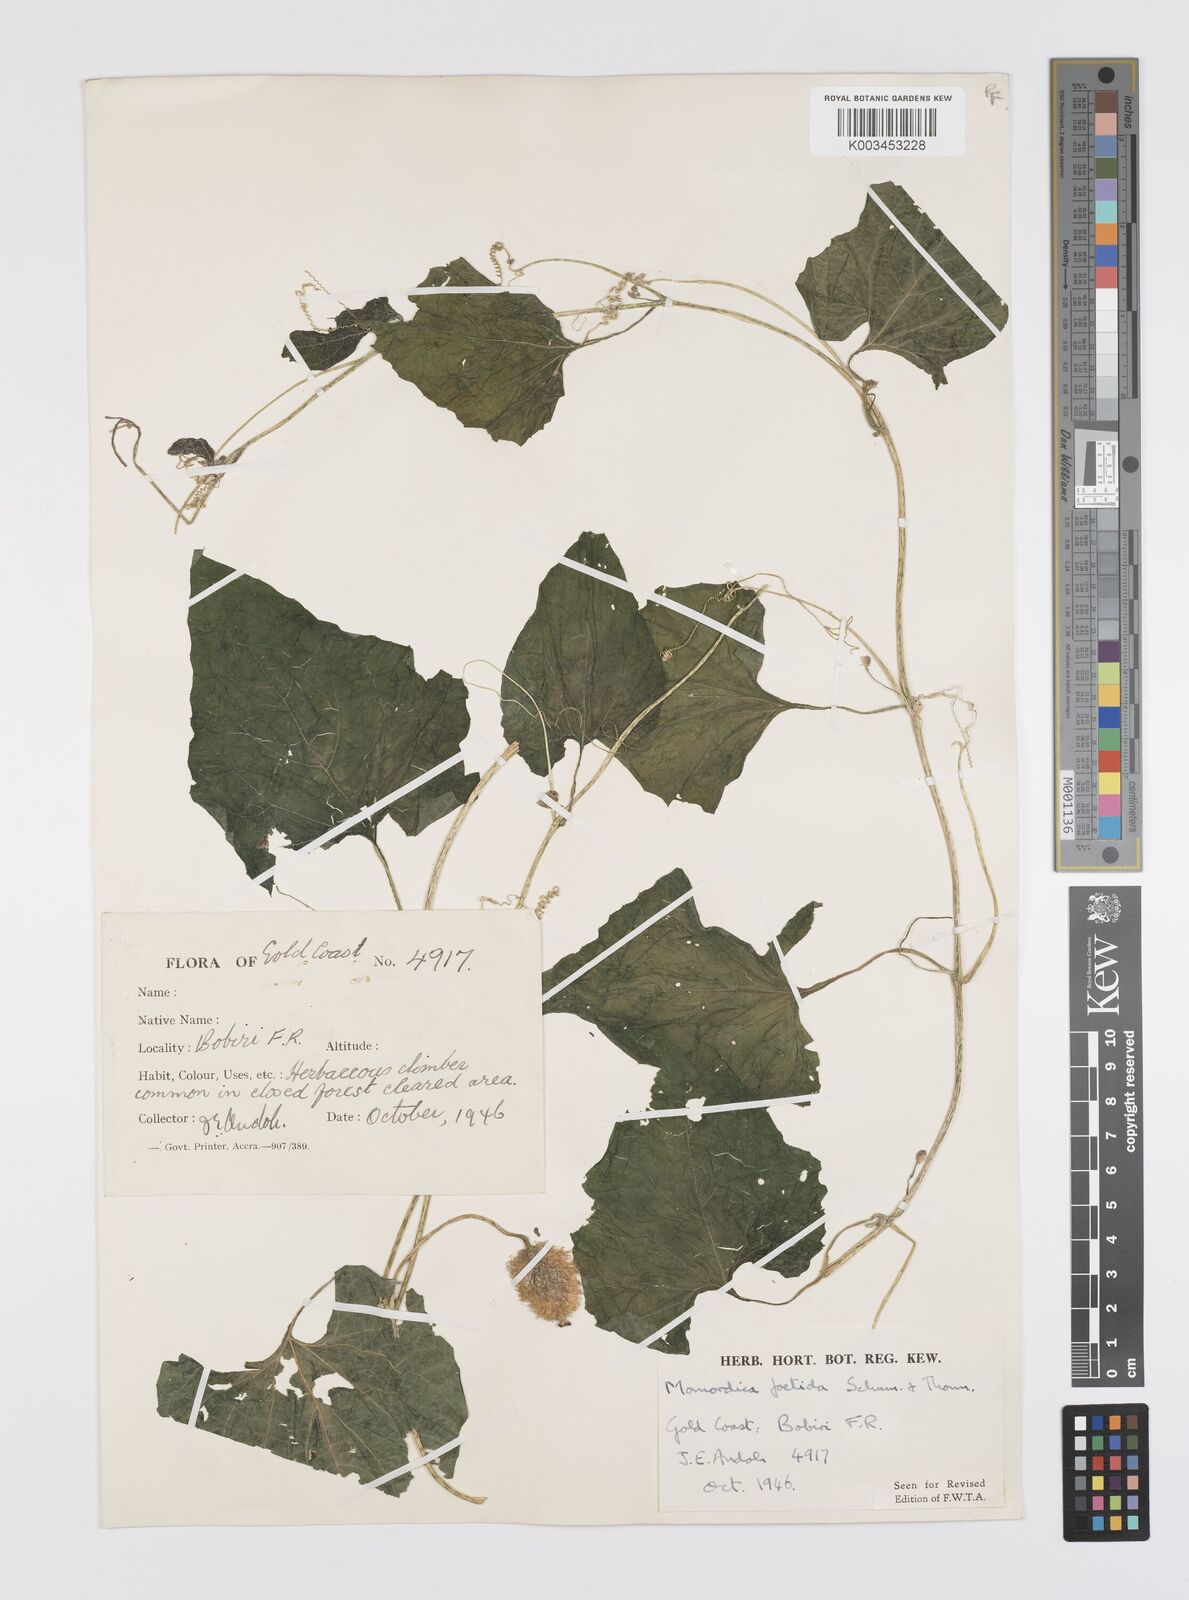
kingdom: Plantae
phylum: Tracheophyta
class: Magnoliopsida
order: Cucurbitales
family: Cucurbitaceae
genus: Momordica
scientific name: Momordica foetida
